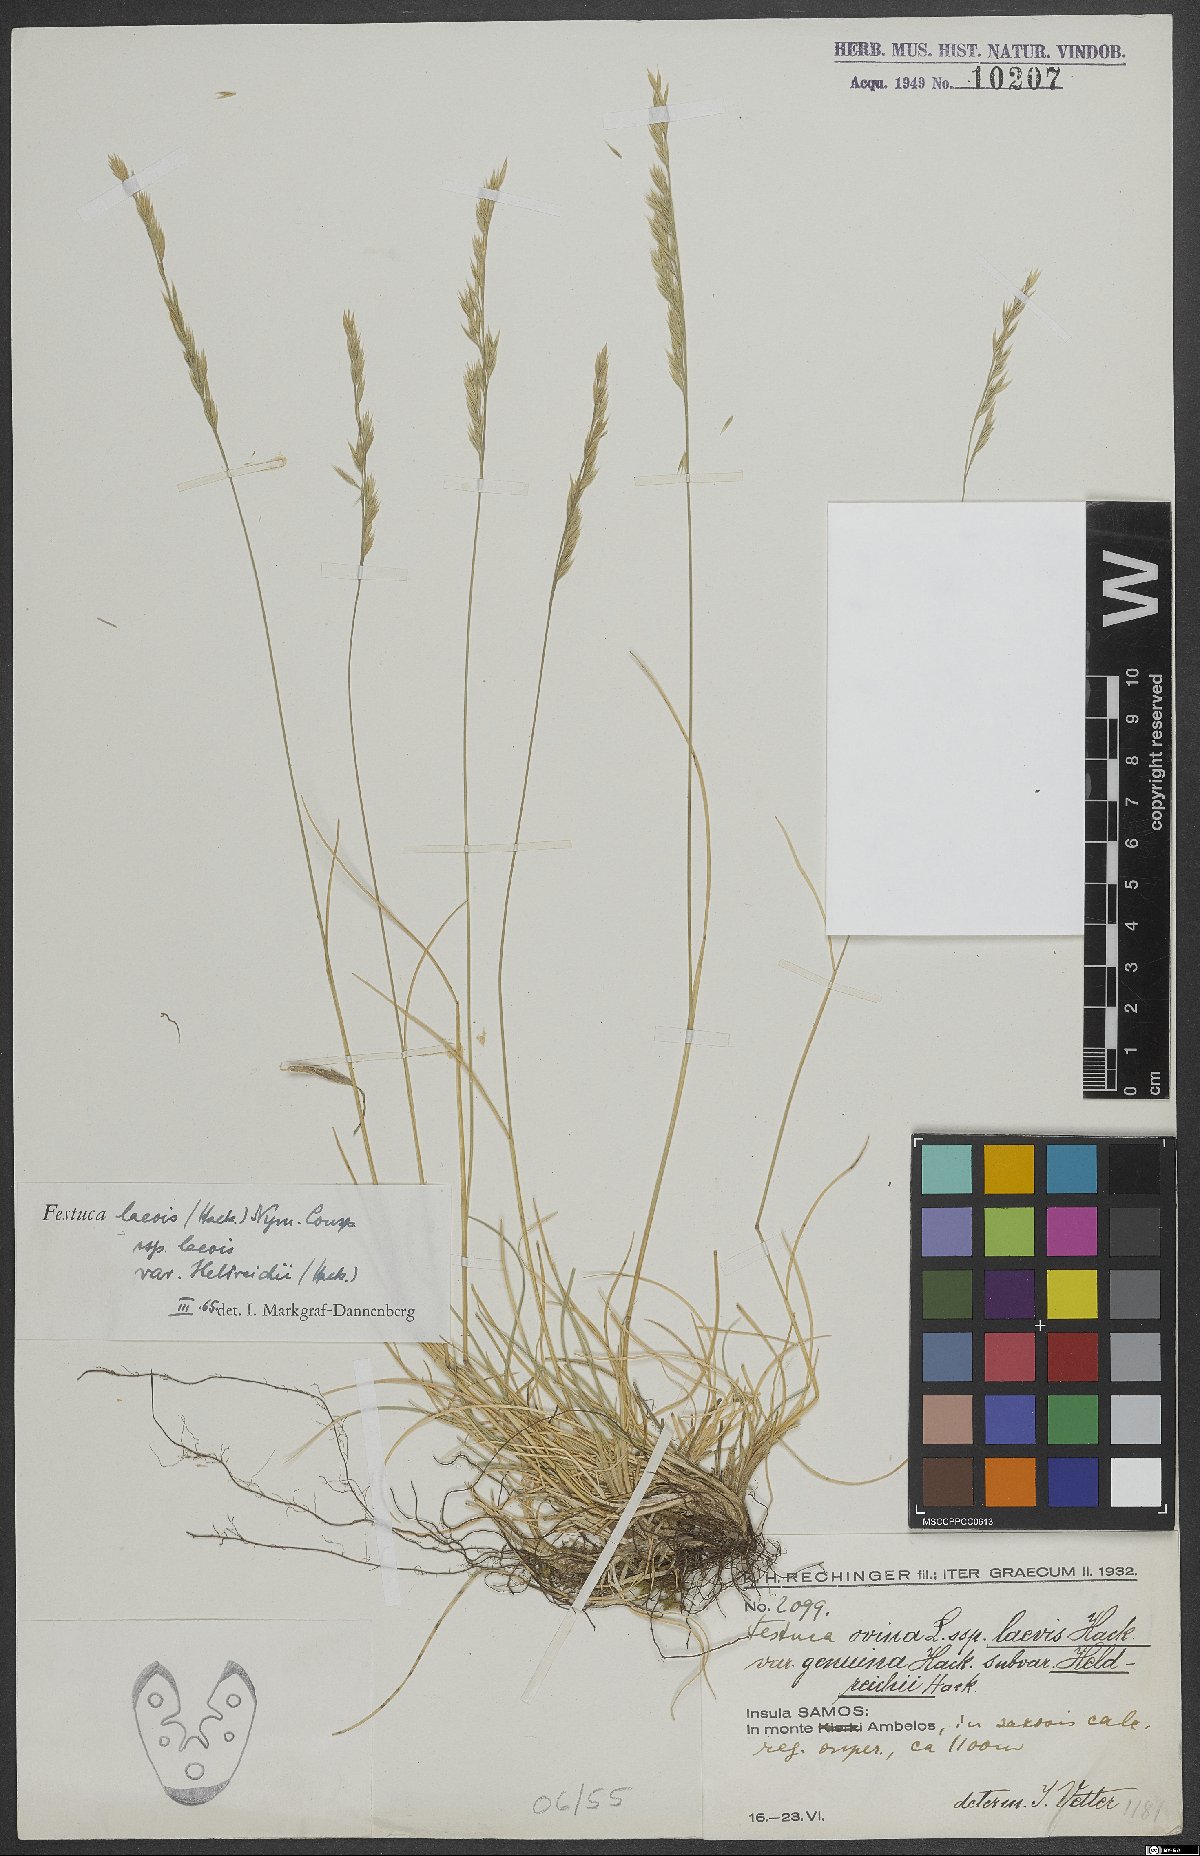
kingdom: Plantae
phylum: Tracheophyta
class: Liliopsida
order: Poales
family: Poaceae
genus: Festuca
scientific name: Festuca laevis
